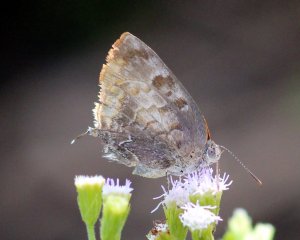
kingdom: Animalia
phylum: Arthropoda
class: Insecta
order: Lepidoptera
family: Lycaenidae
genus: Rekoa
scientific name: Rekoa palegon
